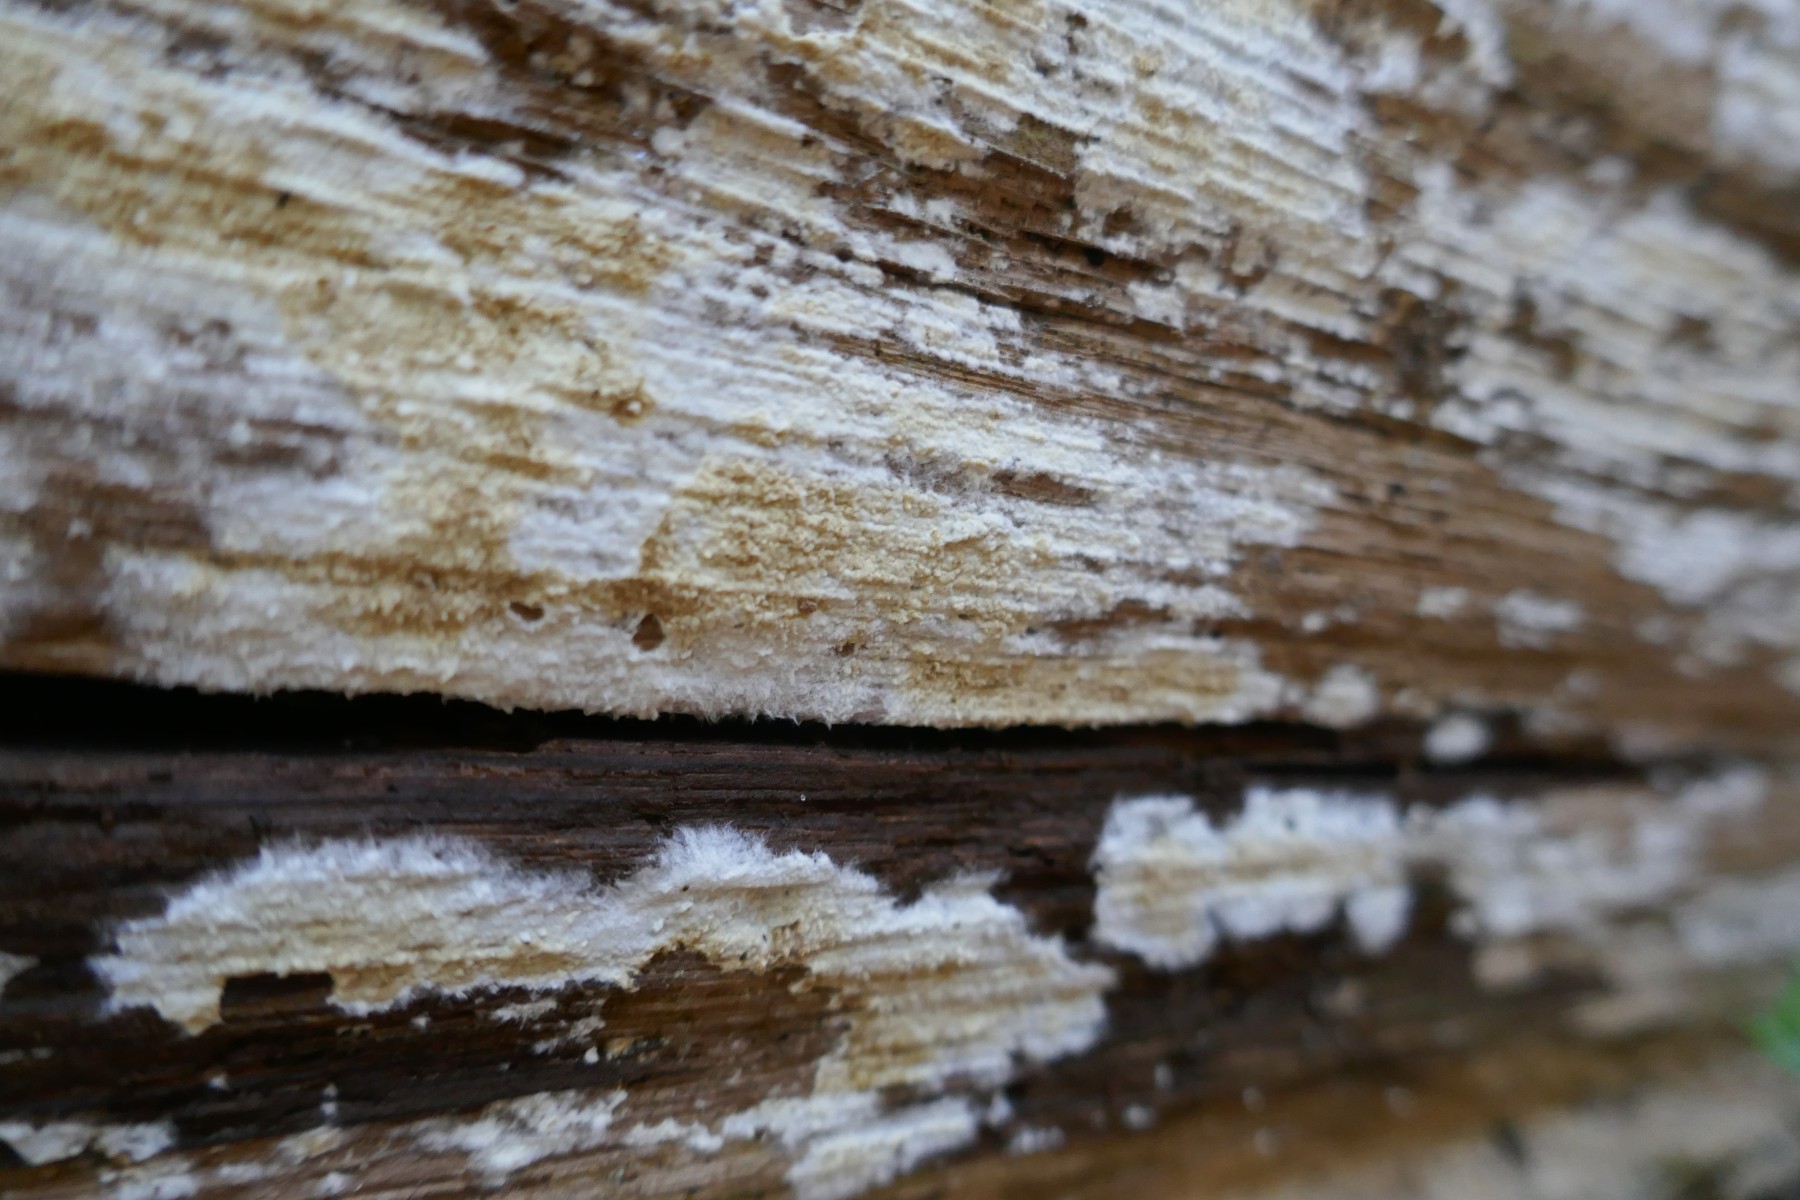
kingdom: Fungi
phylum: Basidiomycota
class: Agaricomycetes
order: Boletales
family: Coniophoraceae
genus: Coniophora
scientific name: Coniophora puteana
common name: gul tømmersvamp
